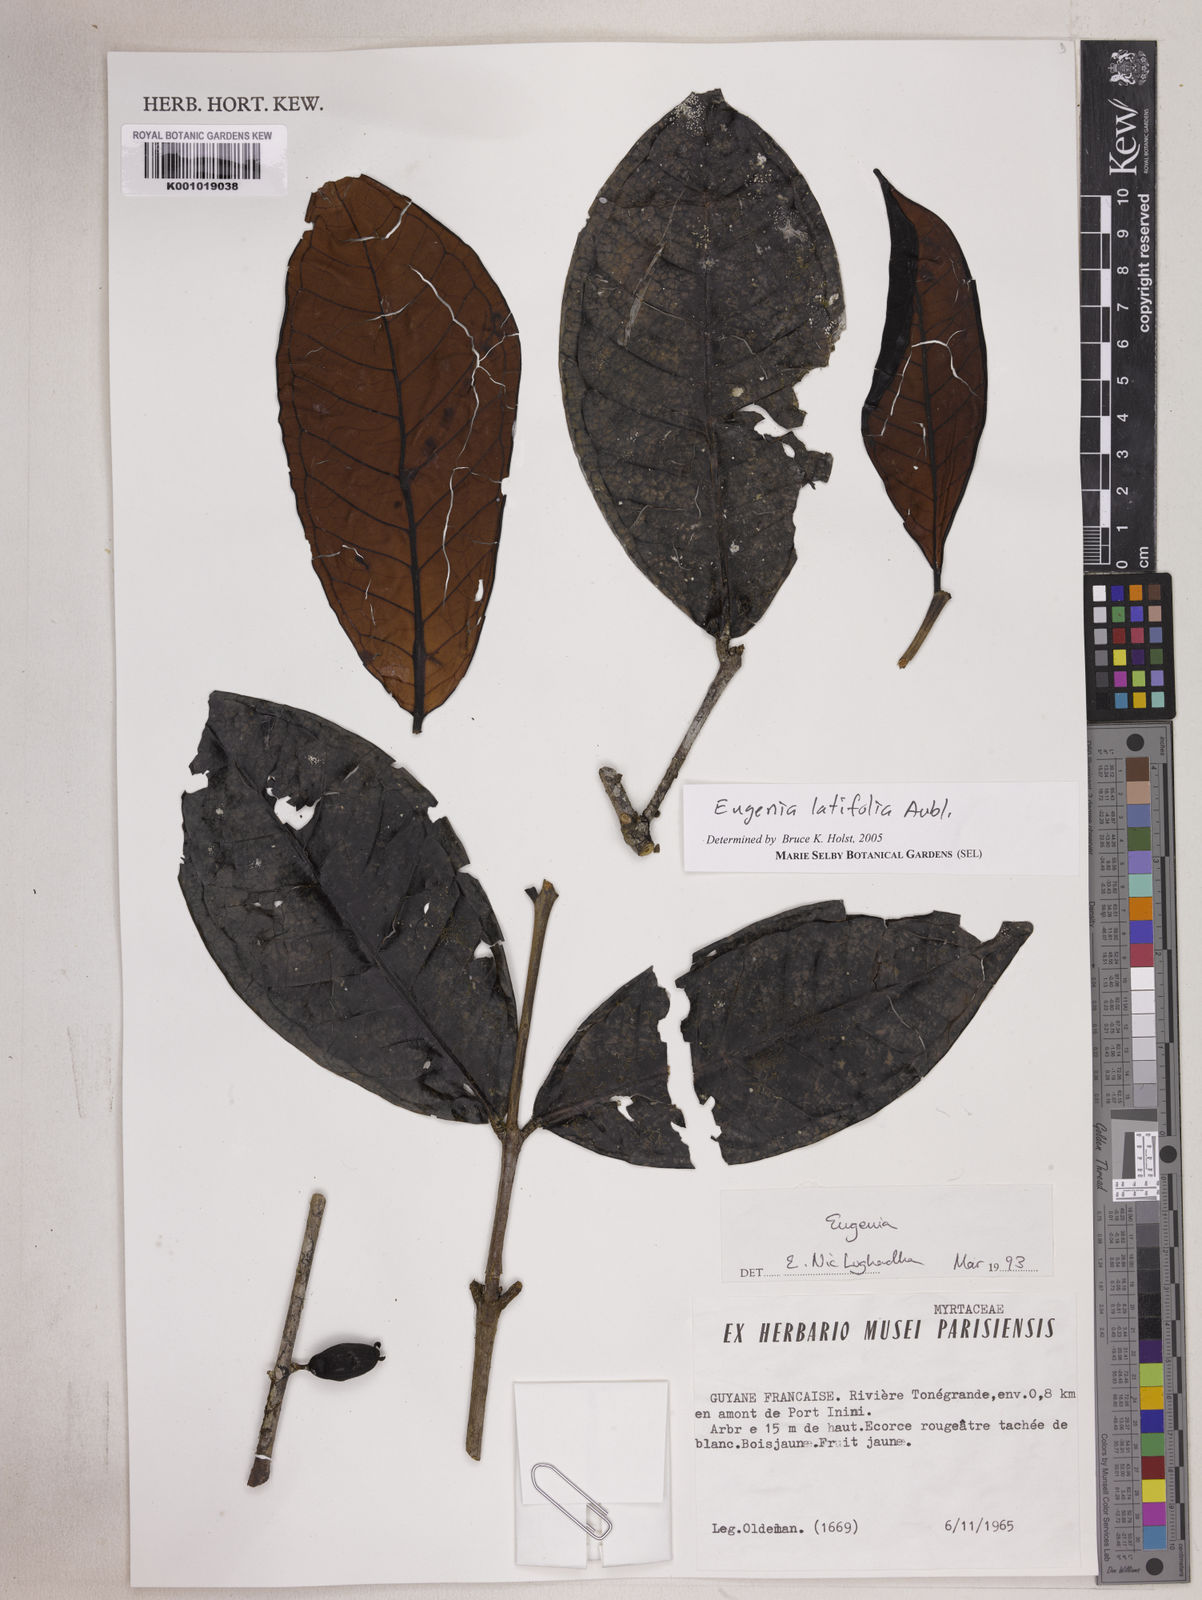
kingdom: Plantae
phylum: Tracheophyta
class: Magnoliopsida
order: Myrtales
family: Myrtaceae
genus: Eugenia
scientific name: Eugenia latifolia
